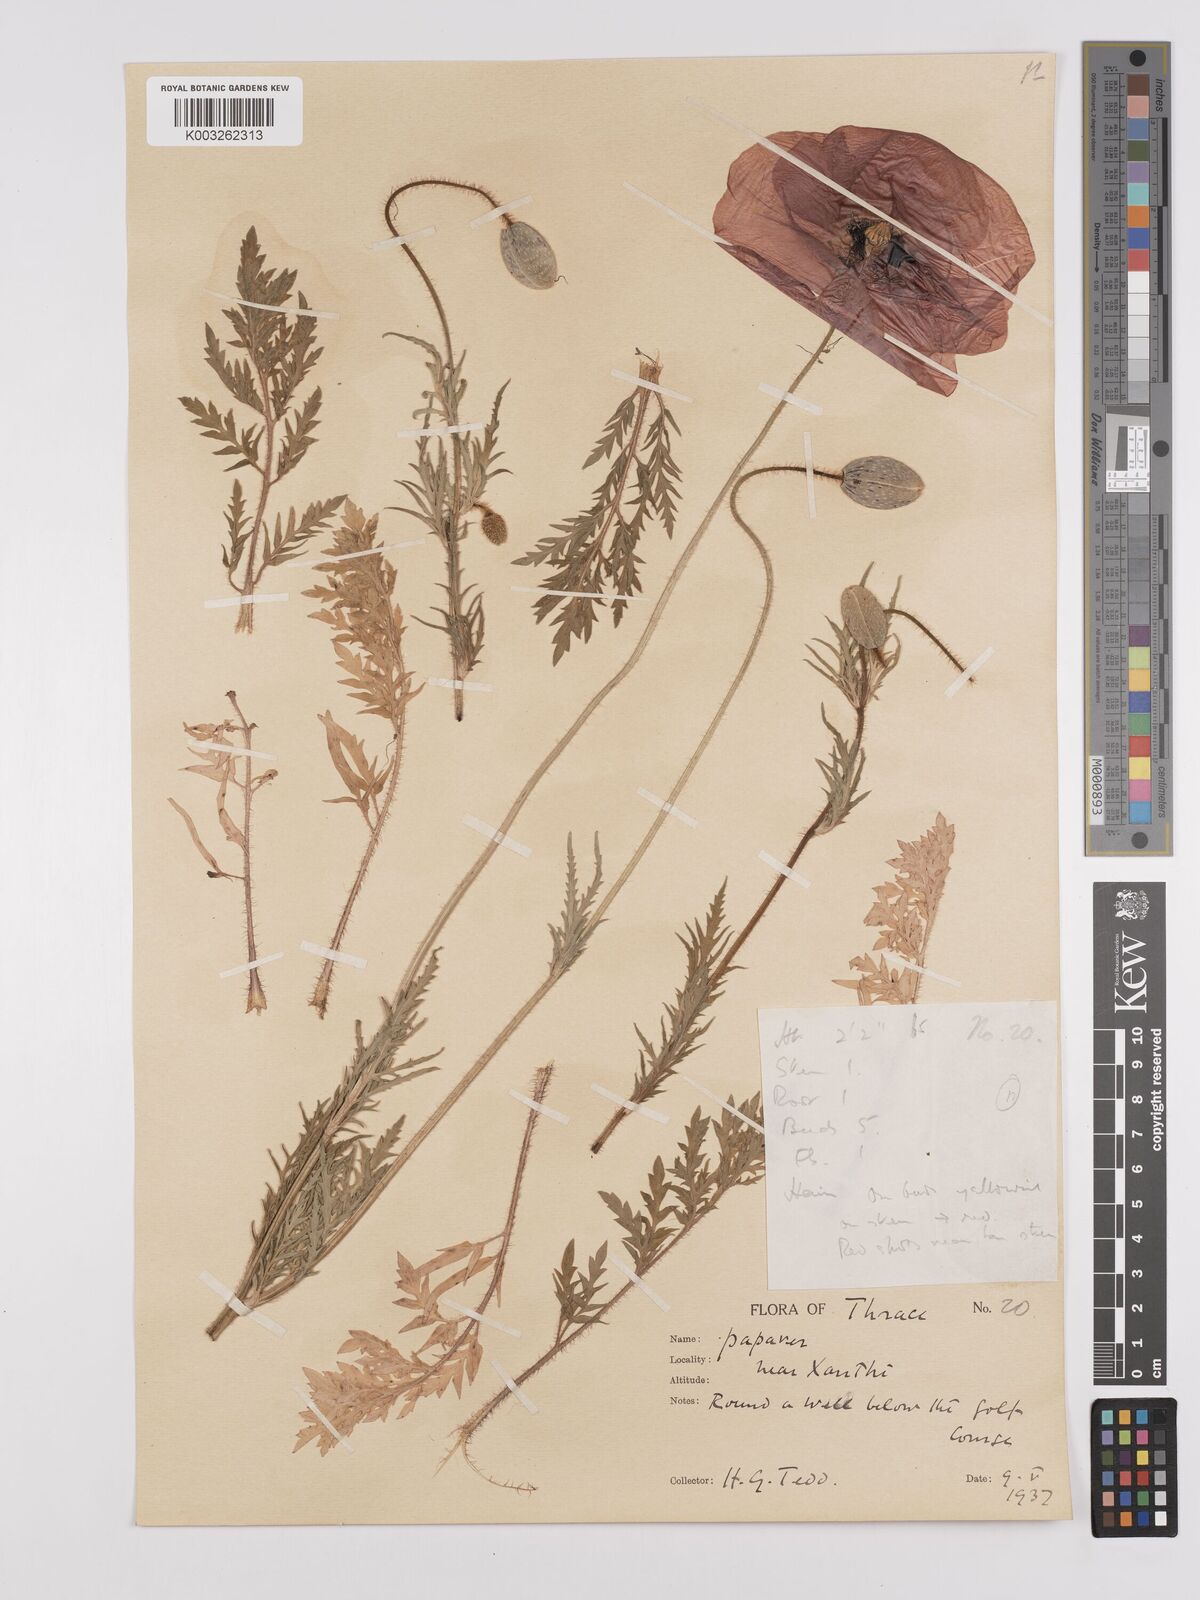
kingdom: Plantae
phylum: Tracheophyta
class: Magnoliopsida
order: Ranunculales
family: Papaveraceae
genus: Papaver
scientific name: Papaver rhoeas
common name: Corn poppy
